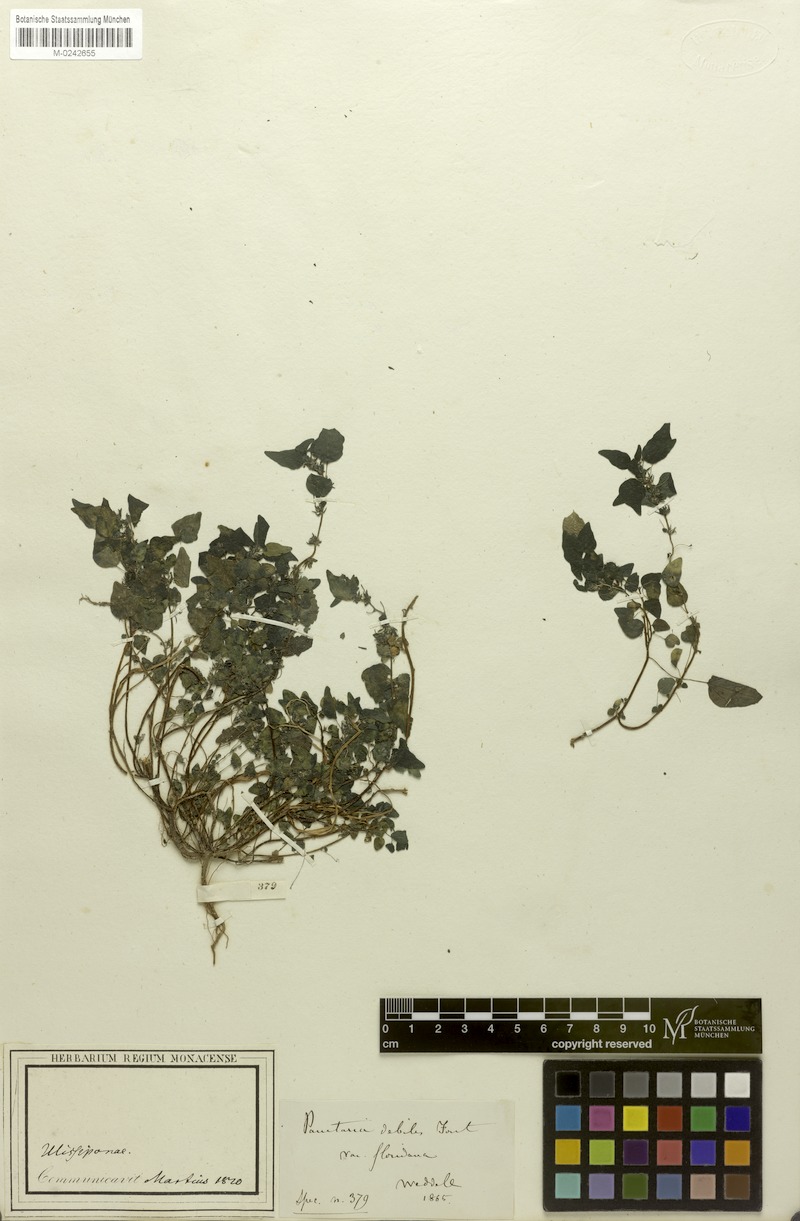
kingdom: Plantae
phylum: Tracheophyta
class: Magnoliopsida
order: Rosales
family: Urticaceae
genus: Parietaria
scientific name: Parietaria debilis
